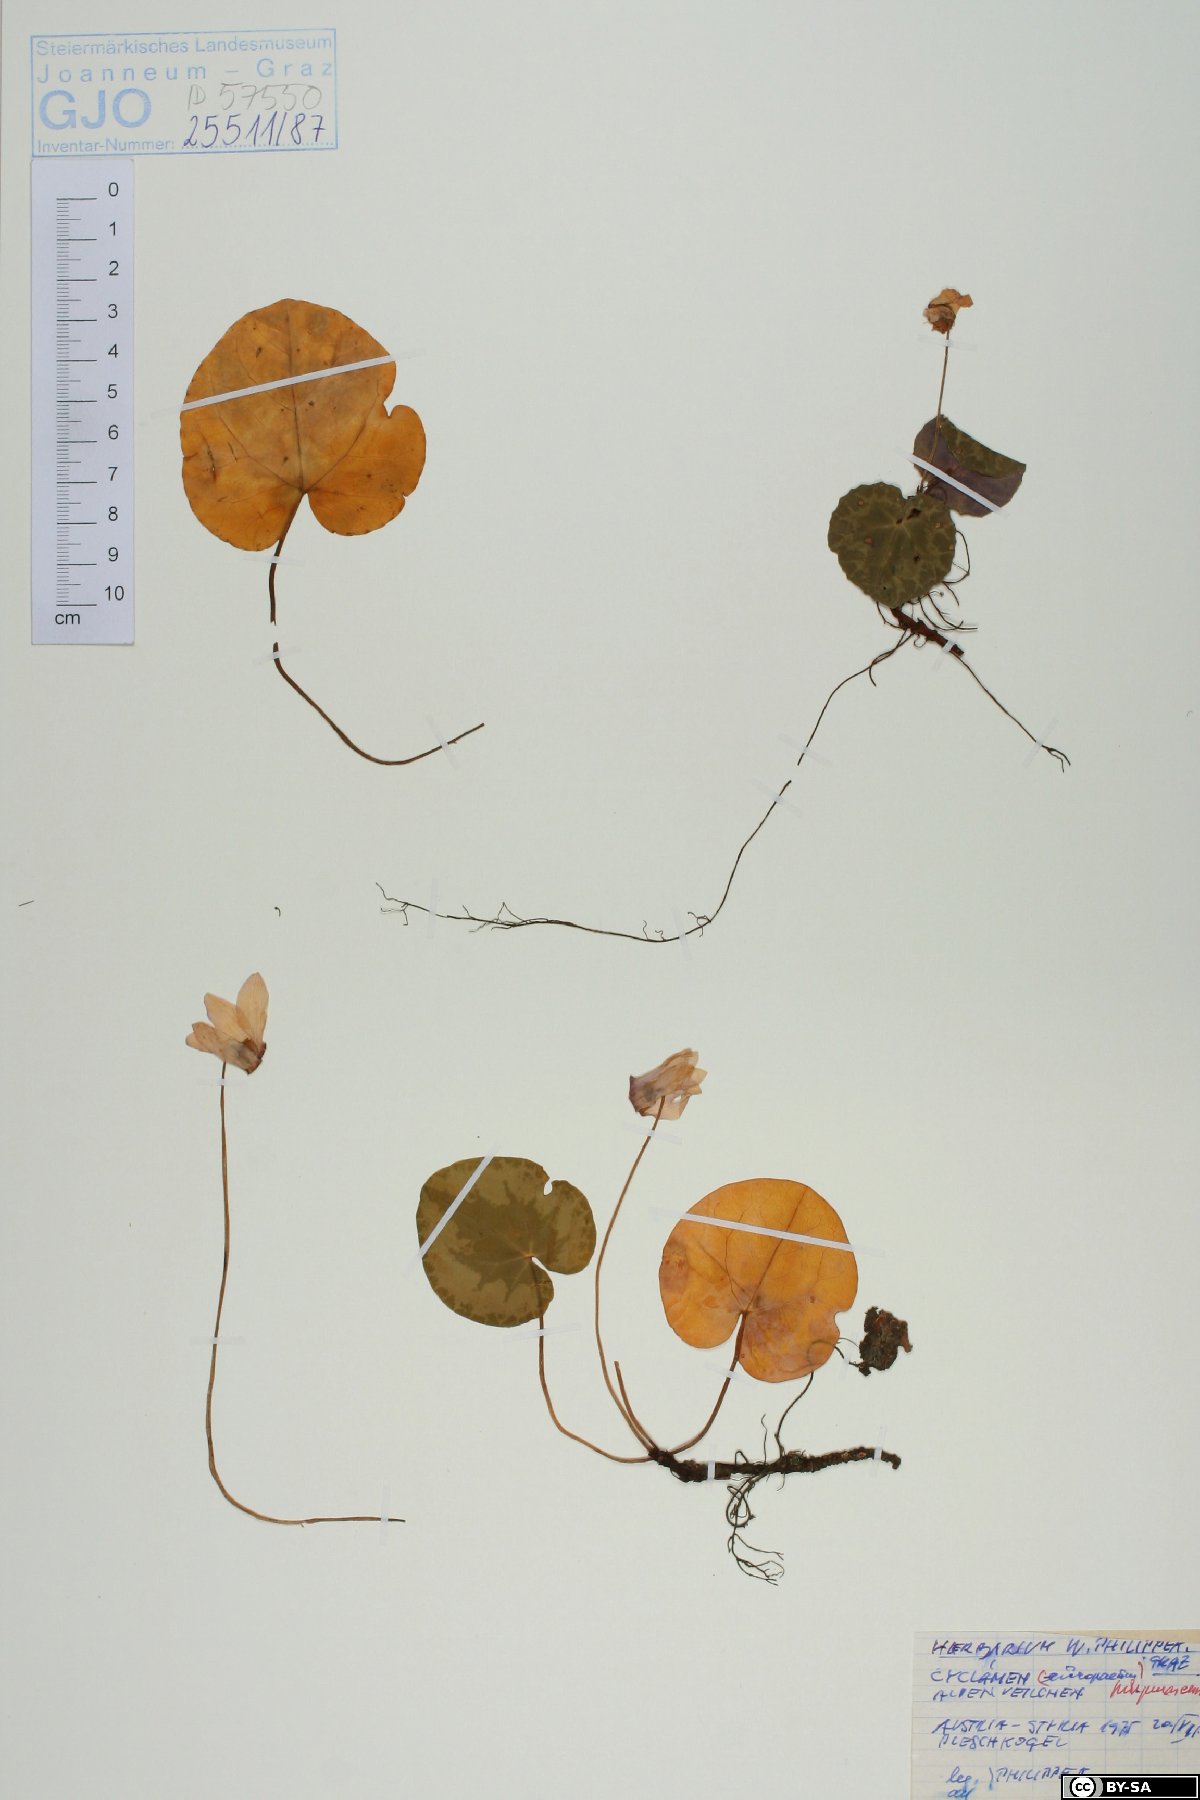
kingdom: Plantae
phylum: Tracheophyta
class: Magnoliopsida
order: Ericales
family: Primulaceae
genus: Cyclamen
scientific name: Cyclamen purpurascens
